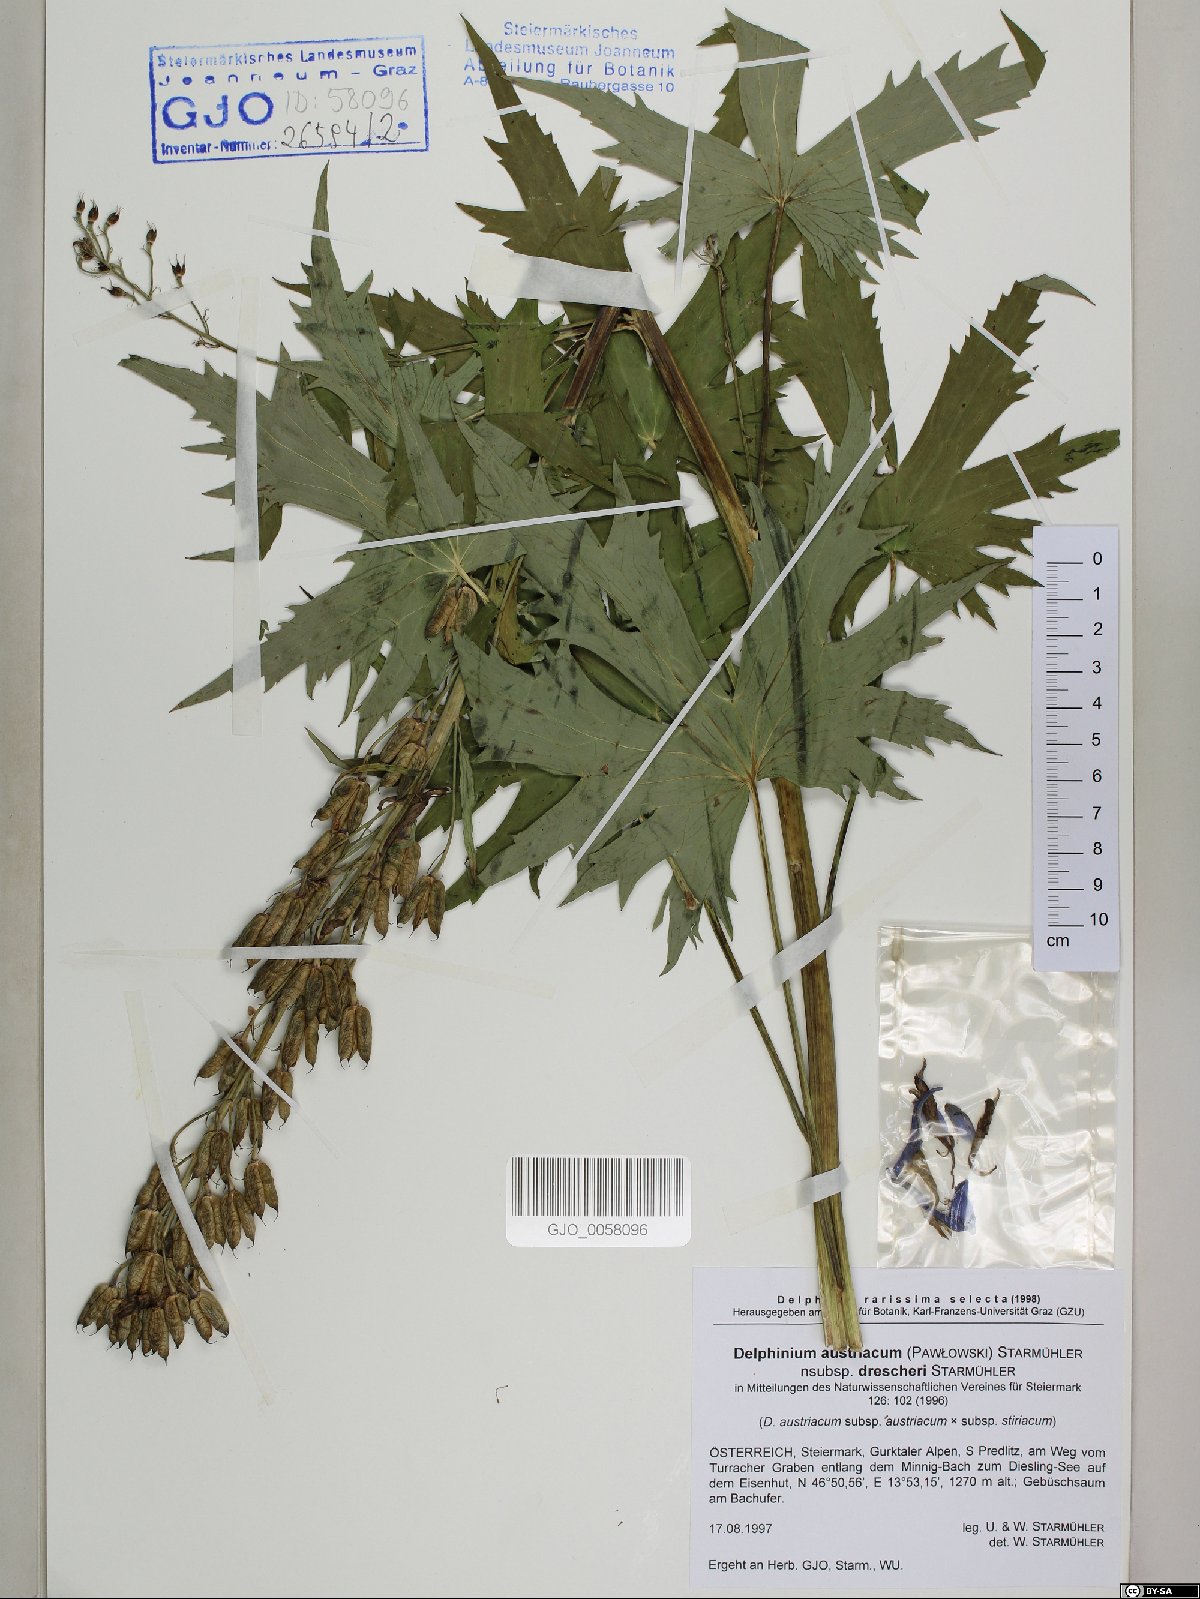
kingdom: Plantae
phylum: Tracheophyta
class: Magnoliopsida
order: Ranunculales
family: Ranunculaceae
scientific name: Ranunculaceae
